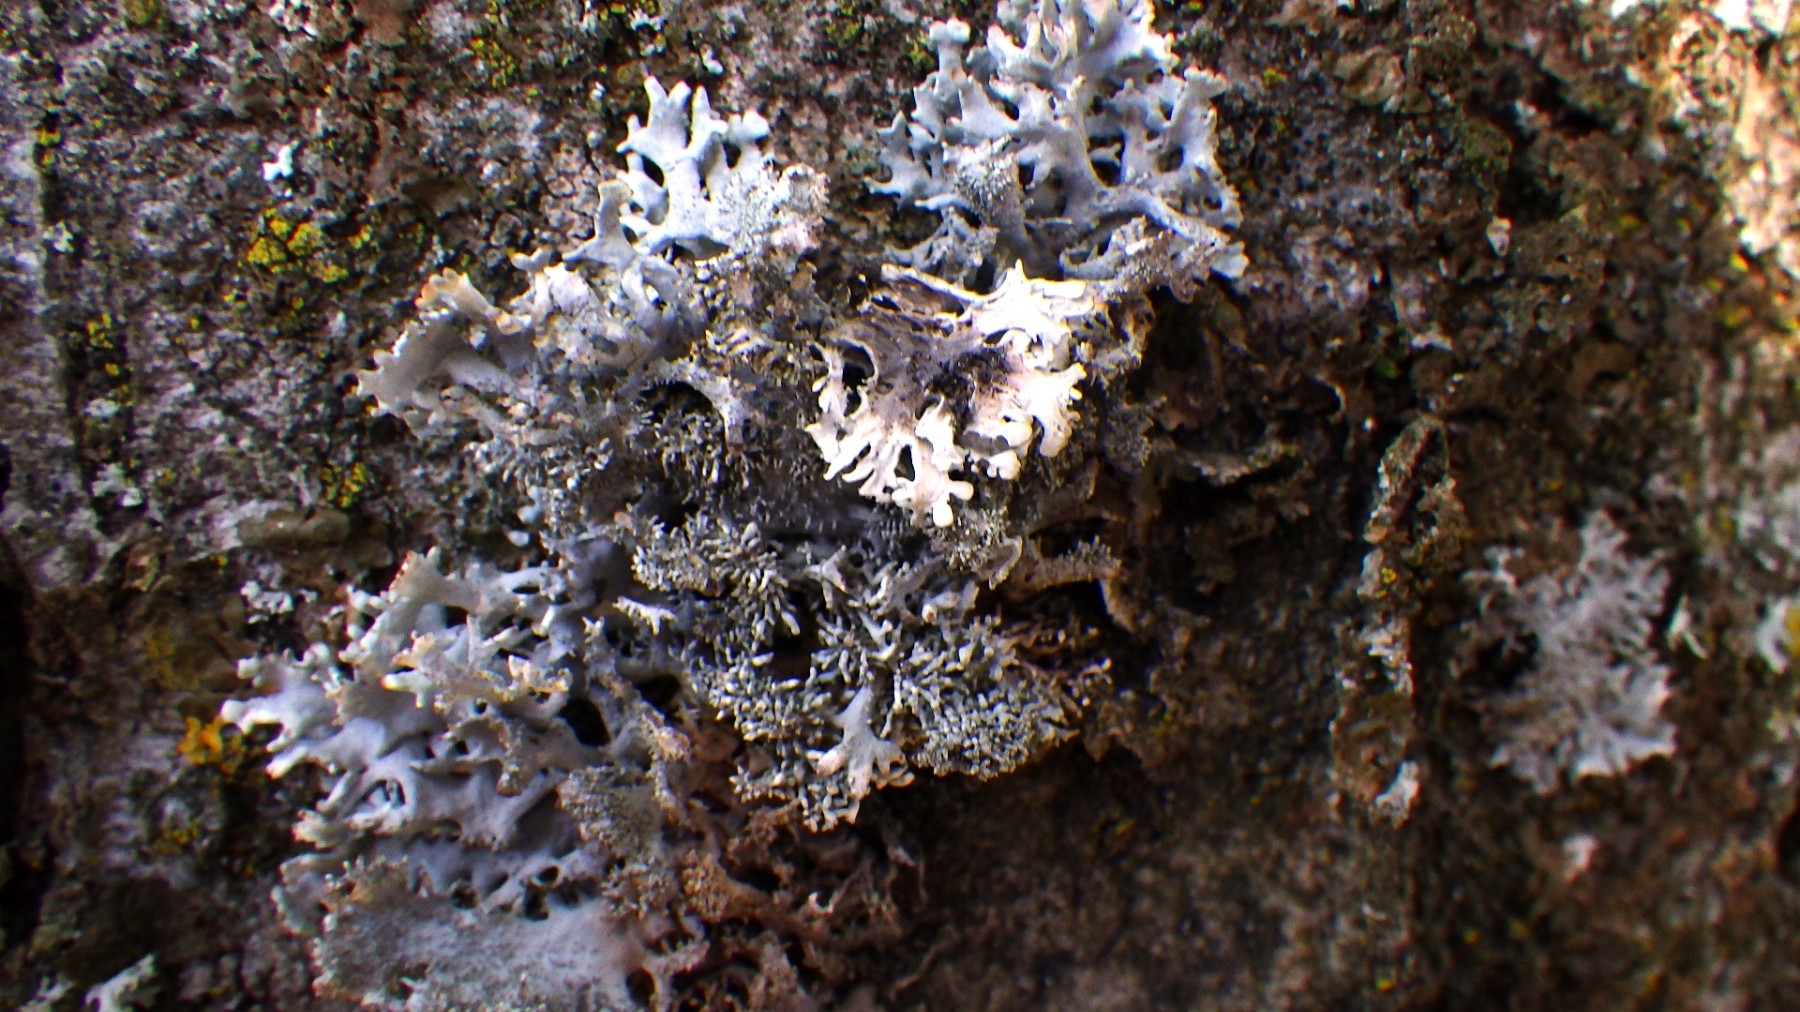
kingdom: Fungi
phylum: Ascomycota
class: Lecanoromycetes
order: Lecanorales
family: Parmeliaceae
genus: Pseudevernia
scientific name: Pseudevernia furfuracea
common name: grå fyrrelav
